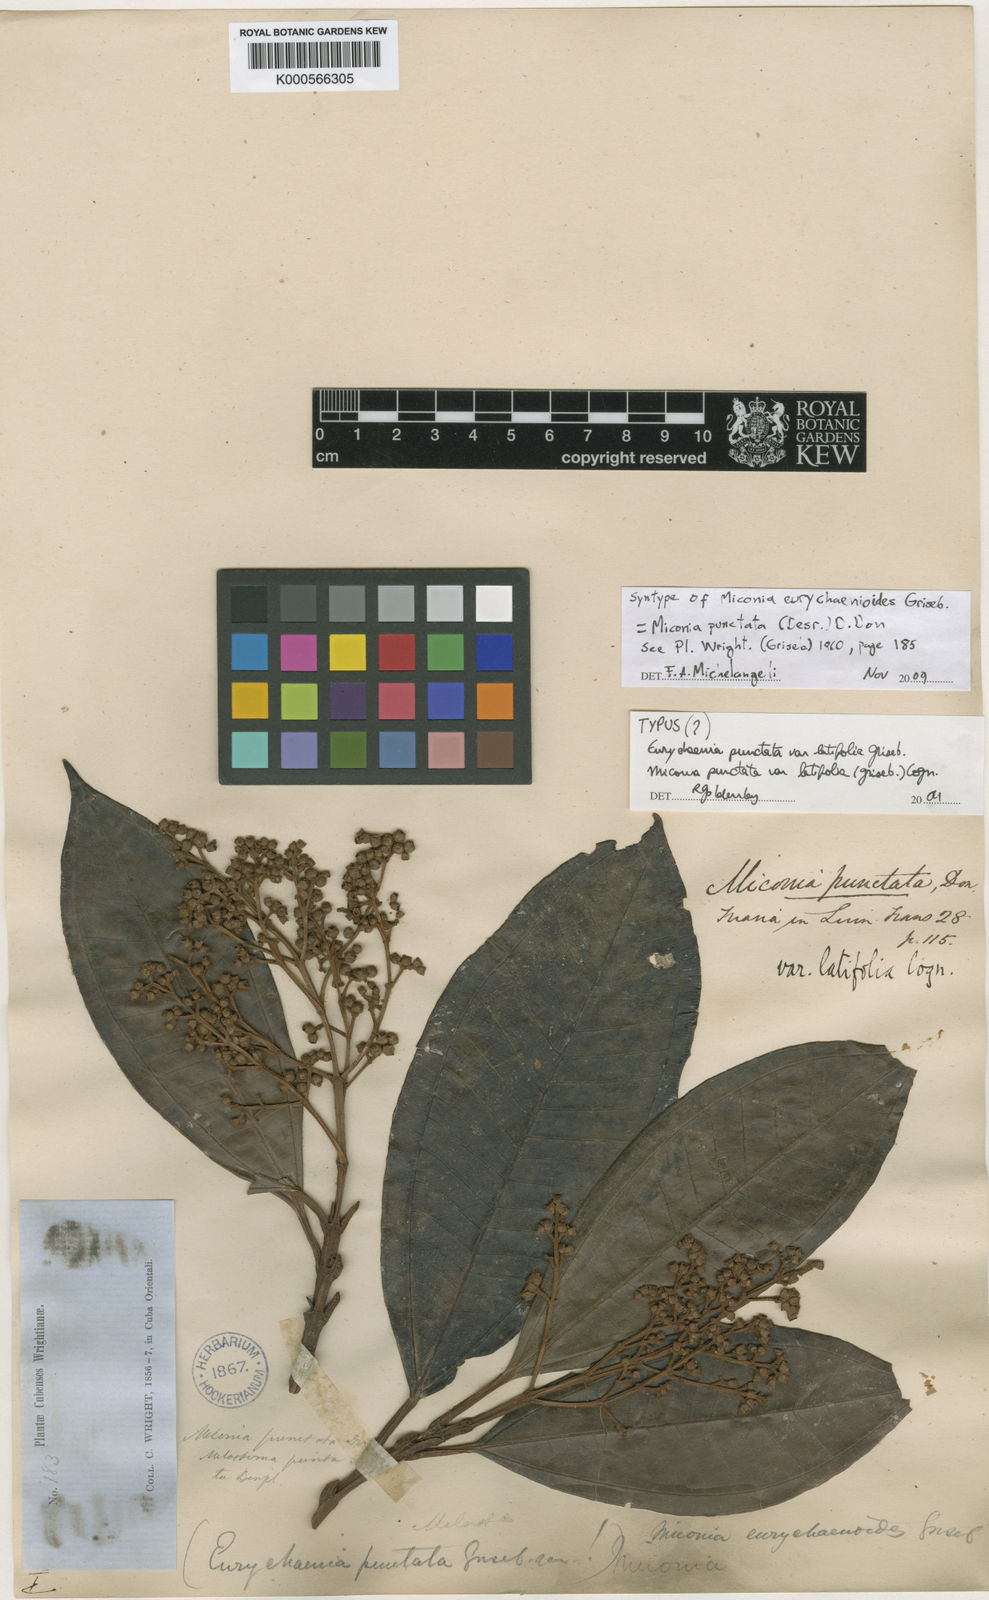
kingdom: Plantae
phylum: Tracheophyta
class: Magnoliopsida
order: Myrtales
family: Melastomataceae
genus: Miconia
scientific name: Miconia punctata
